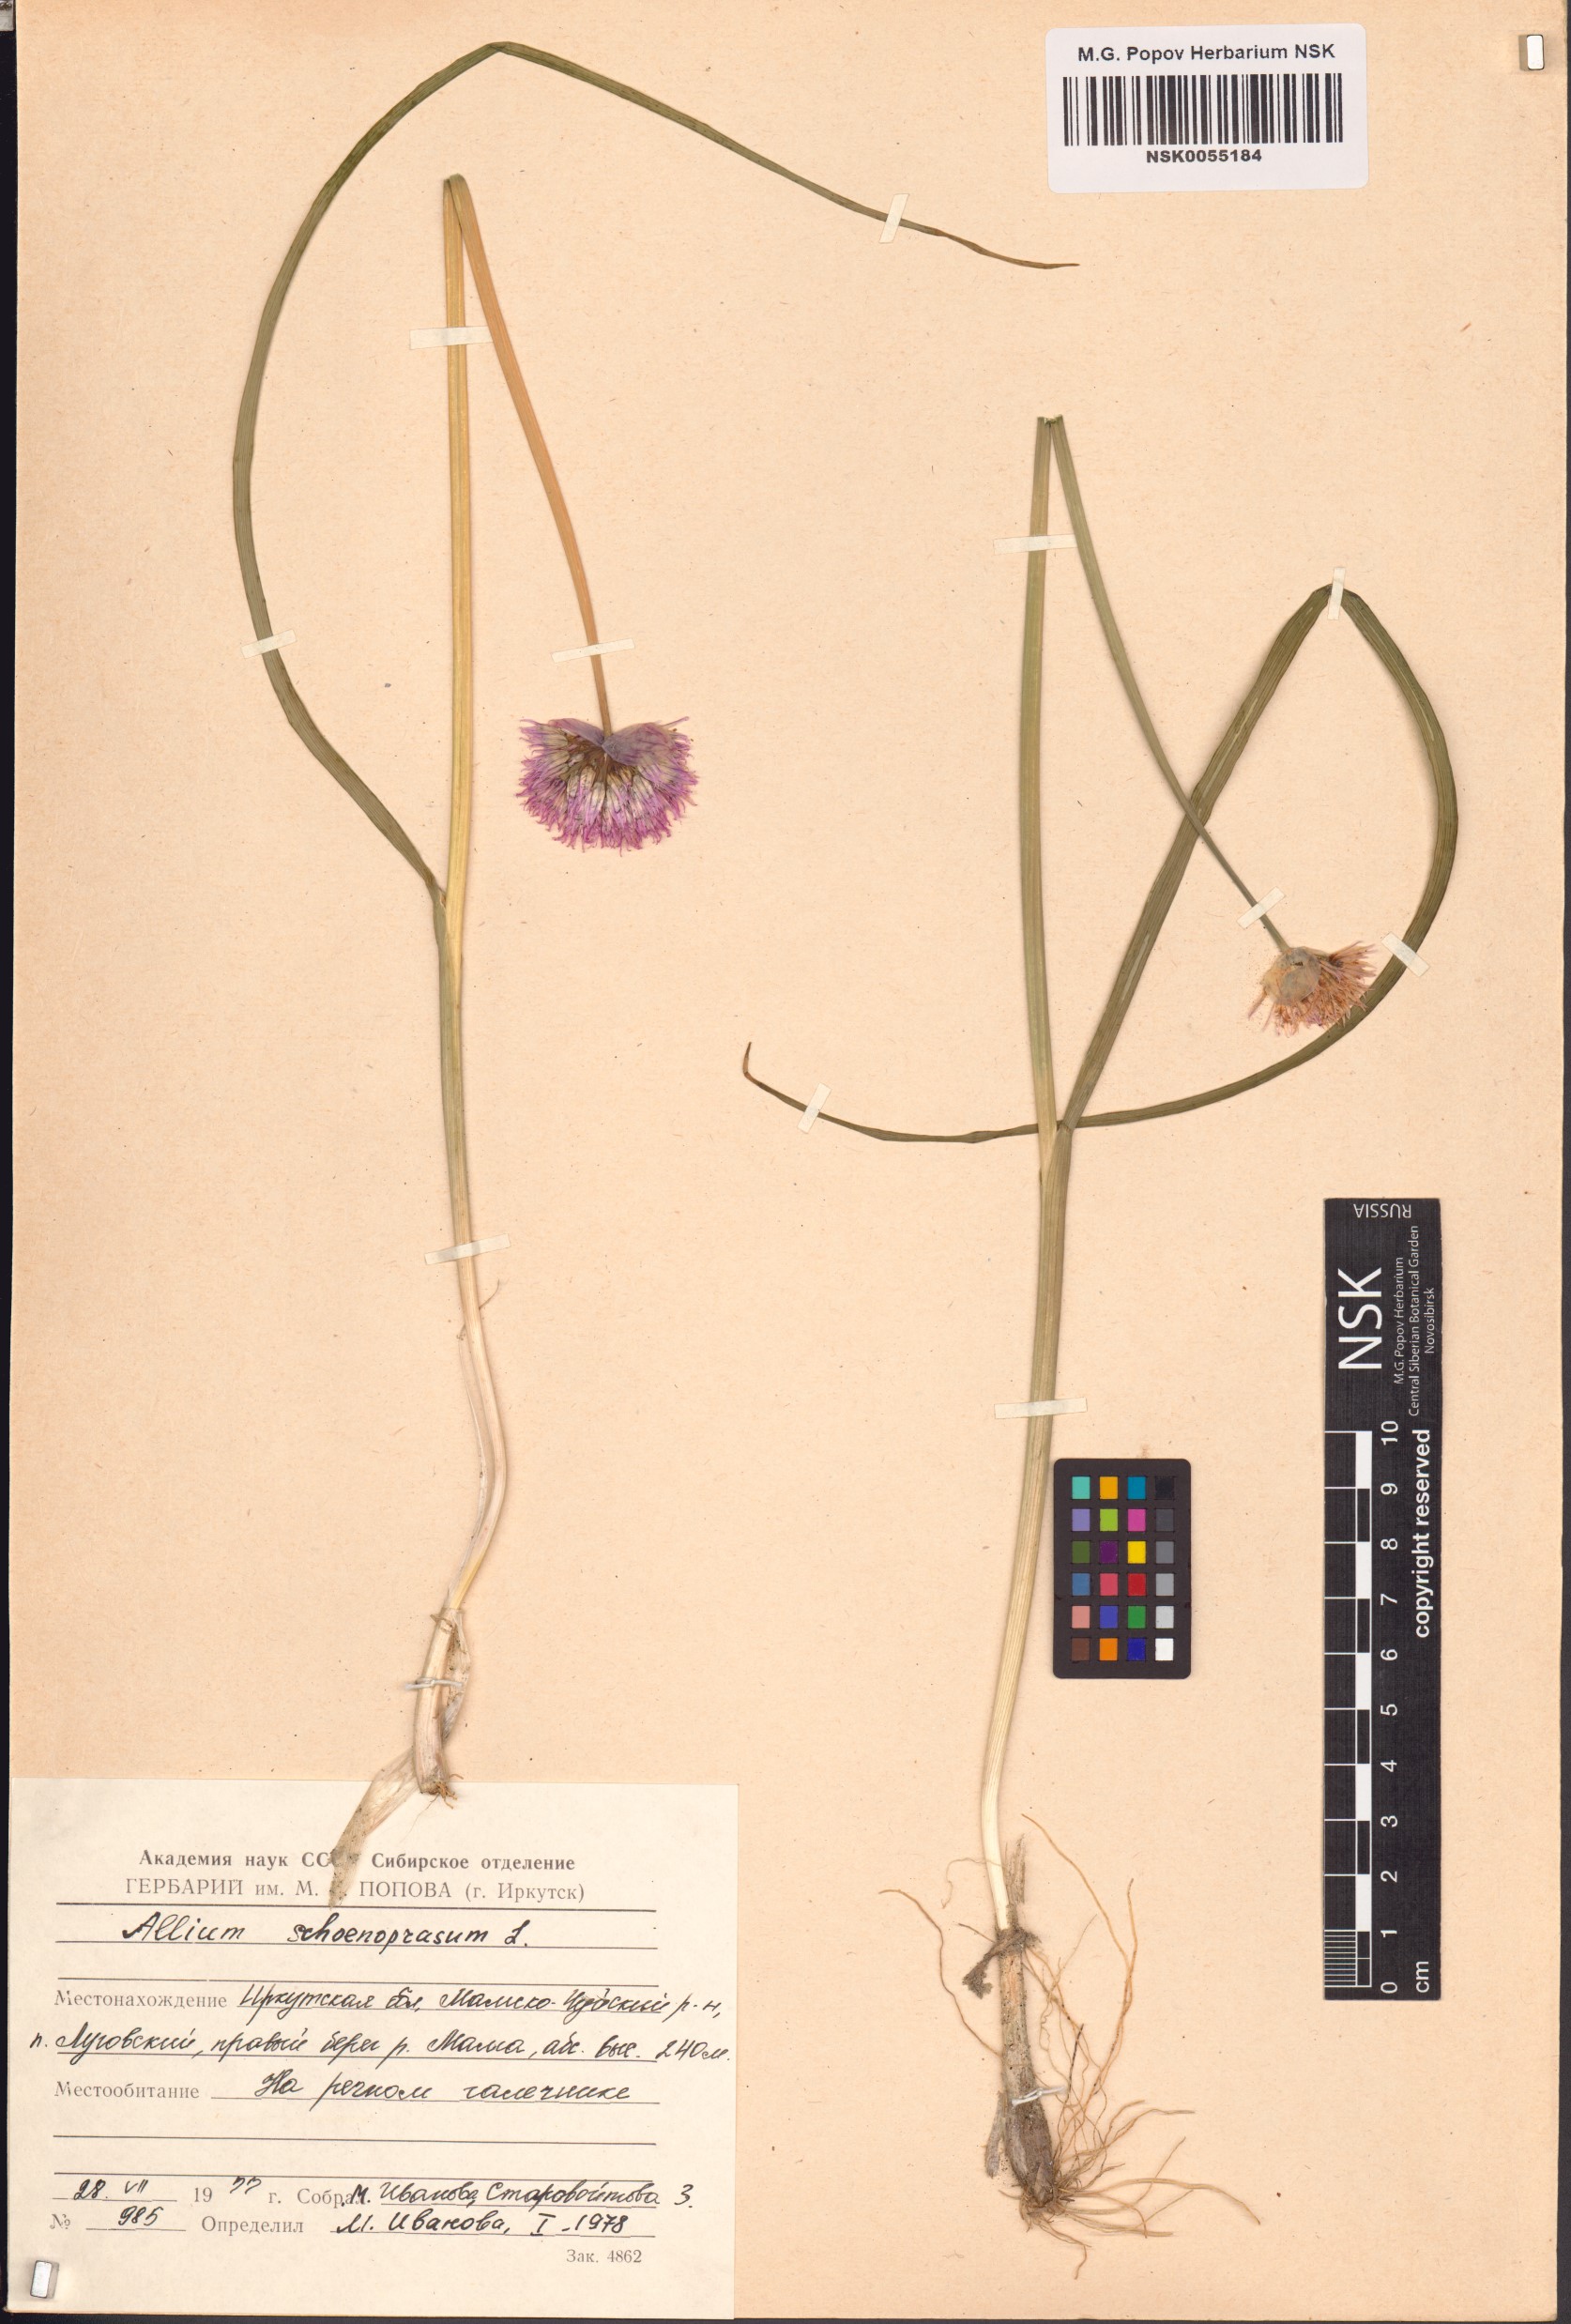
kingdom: Plantae
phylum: Tracheophyta
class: Liliopsida
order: Asparagales
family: Amaryllidaceae
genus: Allium
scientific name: Allium schoenoprasum
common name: Chives
